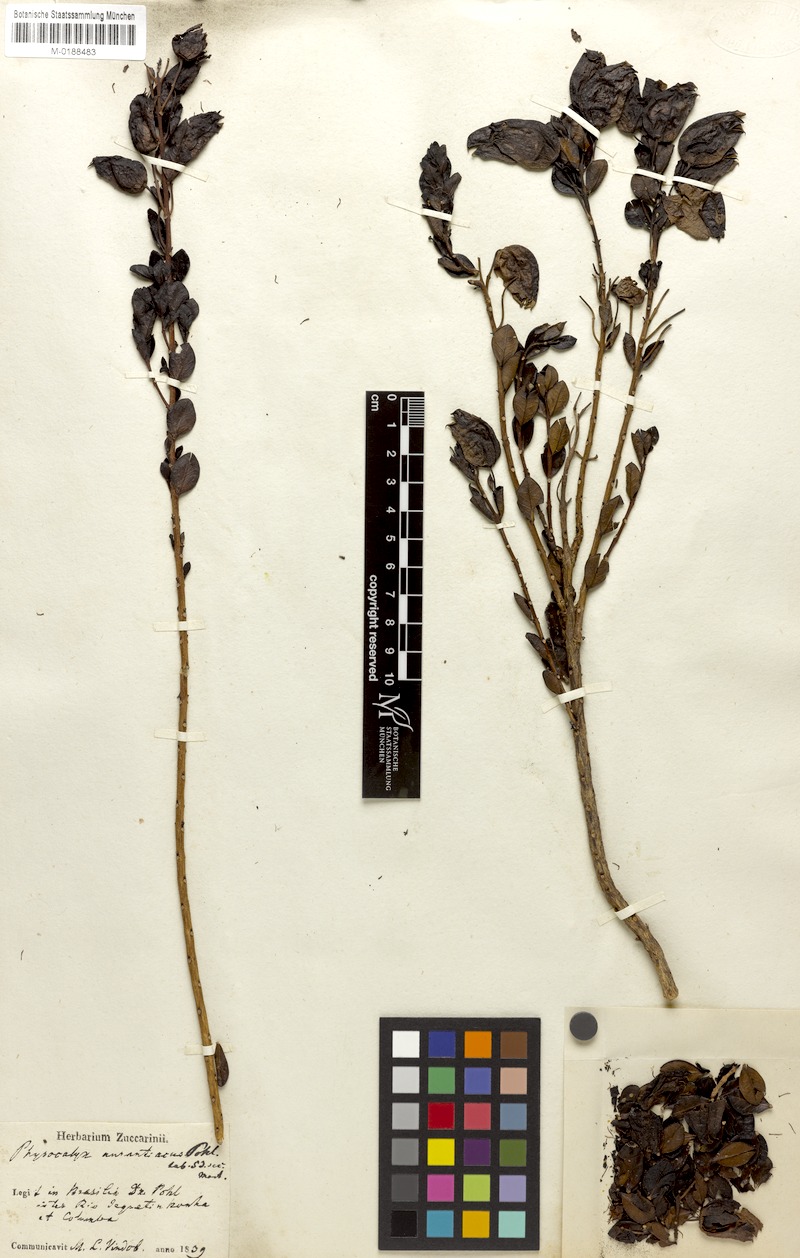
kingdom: Plantae
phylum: Tracheophyta
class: Magnoliopsida
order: Lamiales
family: Orobanchaceae
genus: Physocalyx
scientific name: Physocalyx aurantiacus
